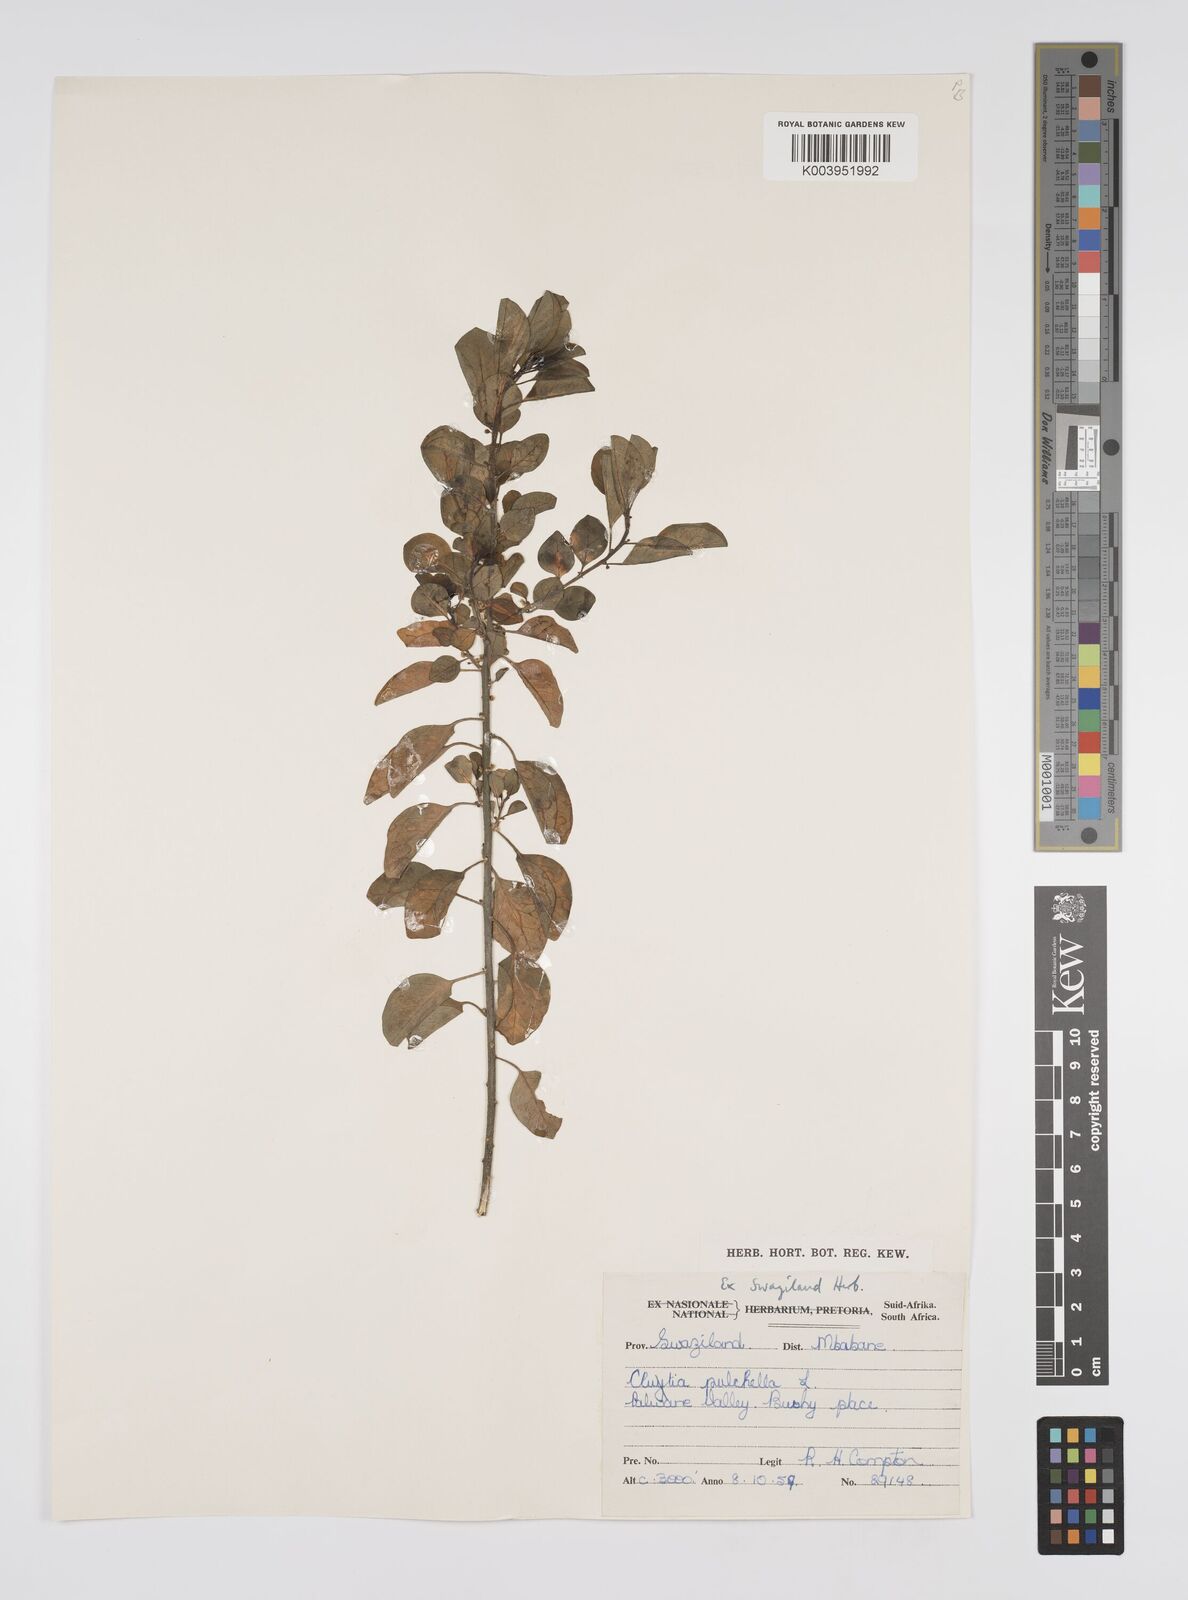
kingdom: Plantae
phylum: Tracheophyta
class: Magnoliopsida
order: Malpighiales
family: Peraceae
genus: Clutia
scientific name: Clutia pulchella
